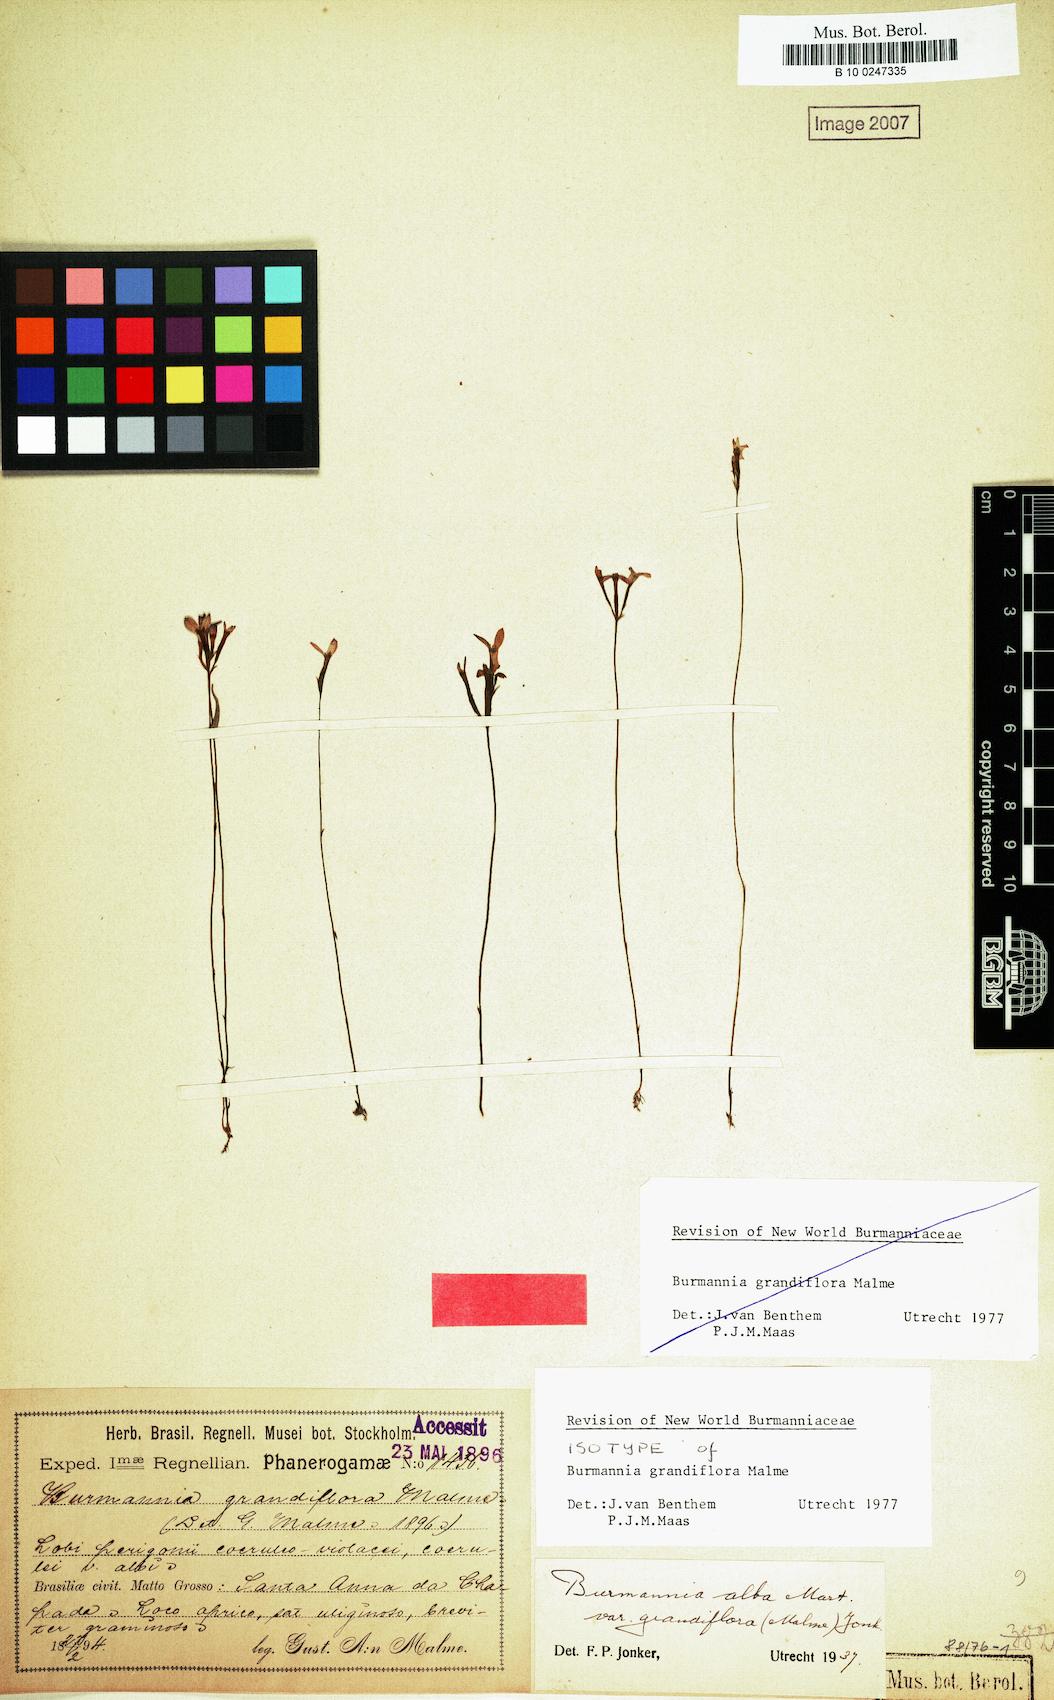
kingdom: Plantae
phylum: Tracheophyta
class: Liliopsida
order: Dioscoreales
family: Burmanniaceae
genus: Burmannia
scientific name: Burmannia grandiflora
